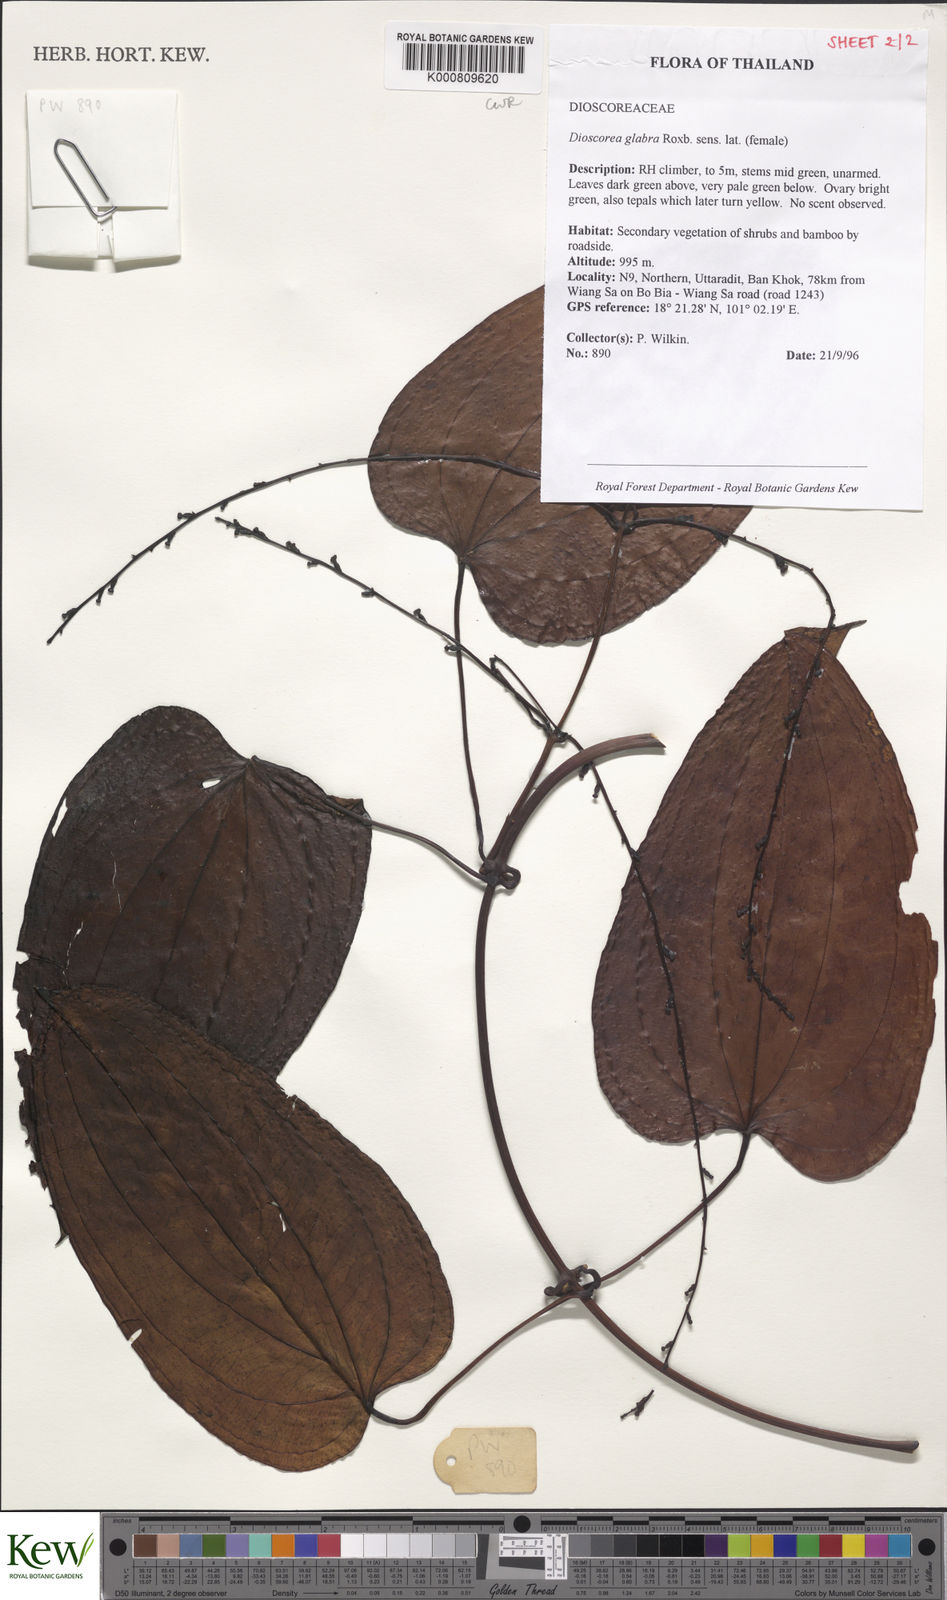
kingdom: Plantae
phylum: Tracheophyta
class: Liliopsida
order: Dioscoreales
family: Dioscoreaceae
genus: Dioscorea
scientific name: Dioscorea glabra
